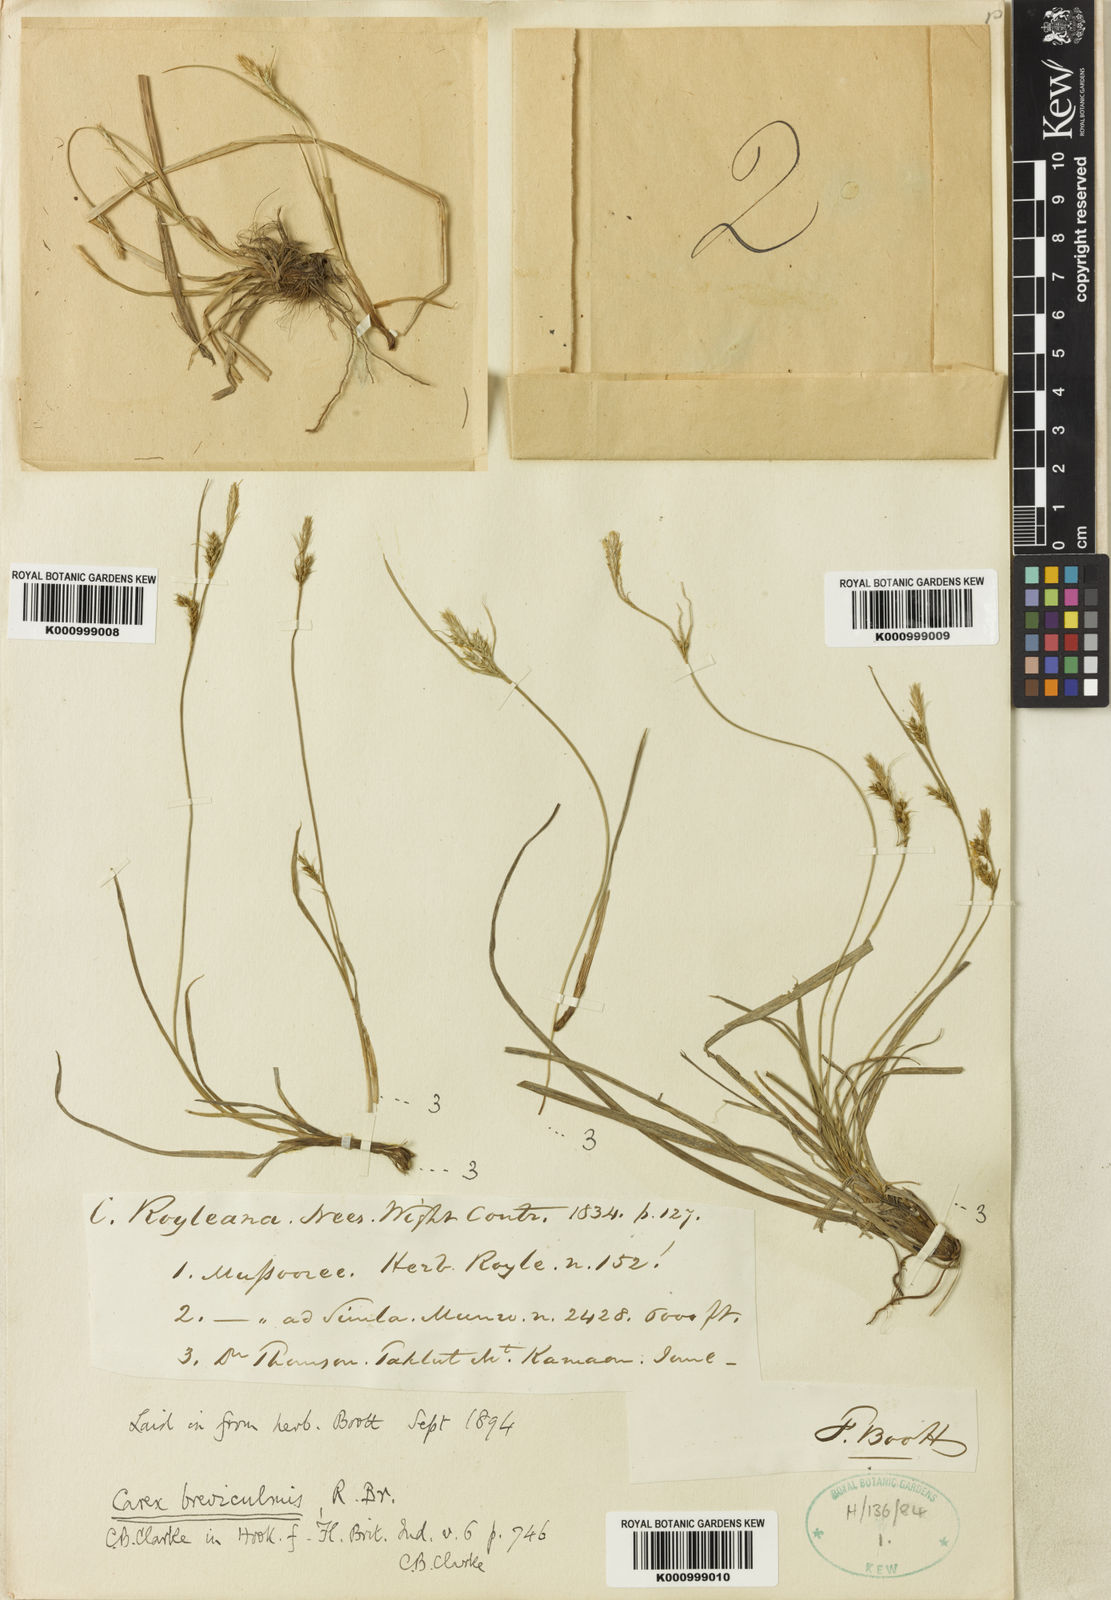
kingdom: Plantae
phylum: Tracheophyta
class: Liliopsida
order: Poales
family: Cyperaceae
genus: Carex
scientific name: Carex breviculmis
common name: Asian shortstem sedge
